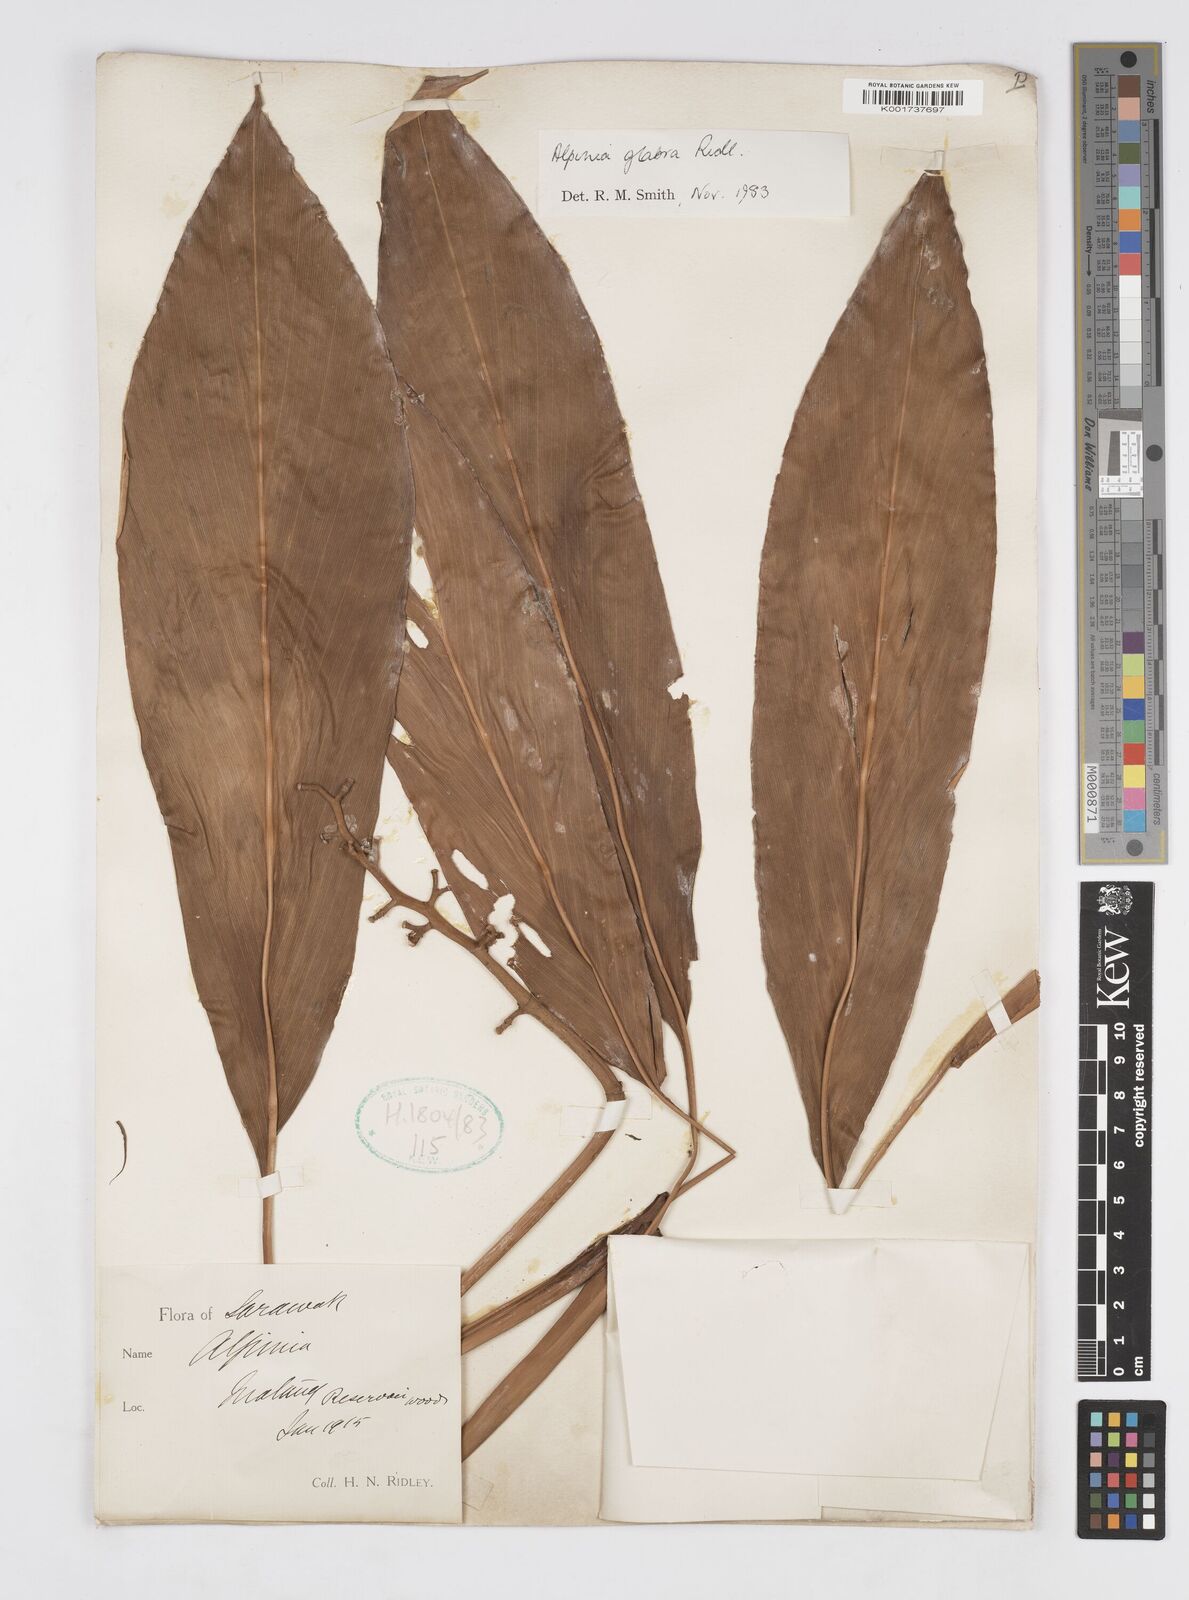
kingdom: Plantae
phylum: Tracheophyta
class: Liliopsida
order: Zingiberales
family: Zingiberaceae
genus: Alpinia
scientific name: Alpinia glabra
